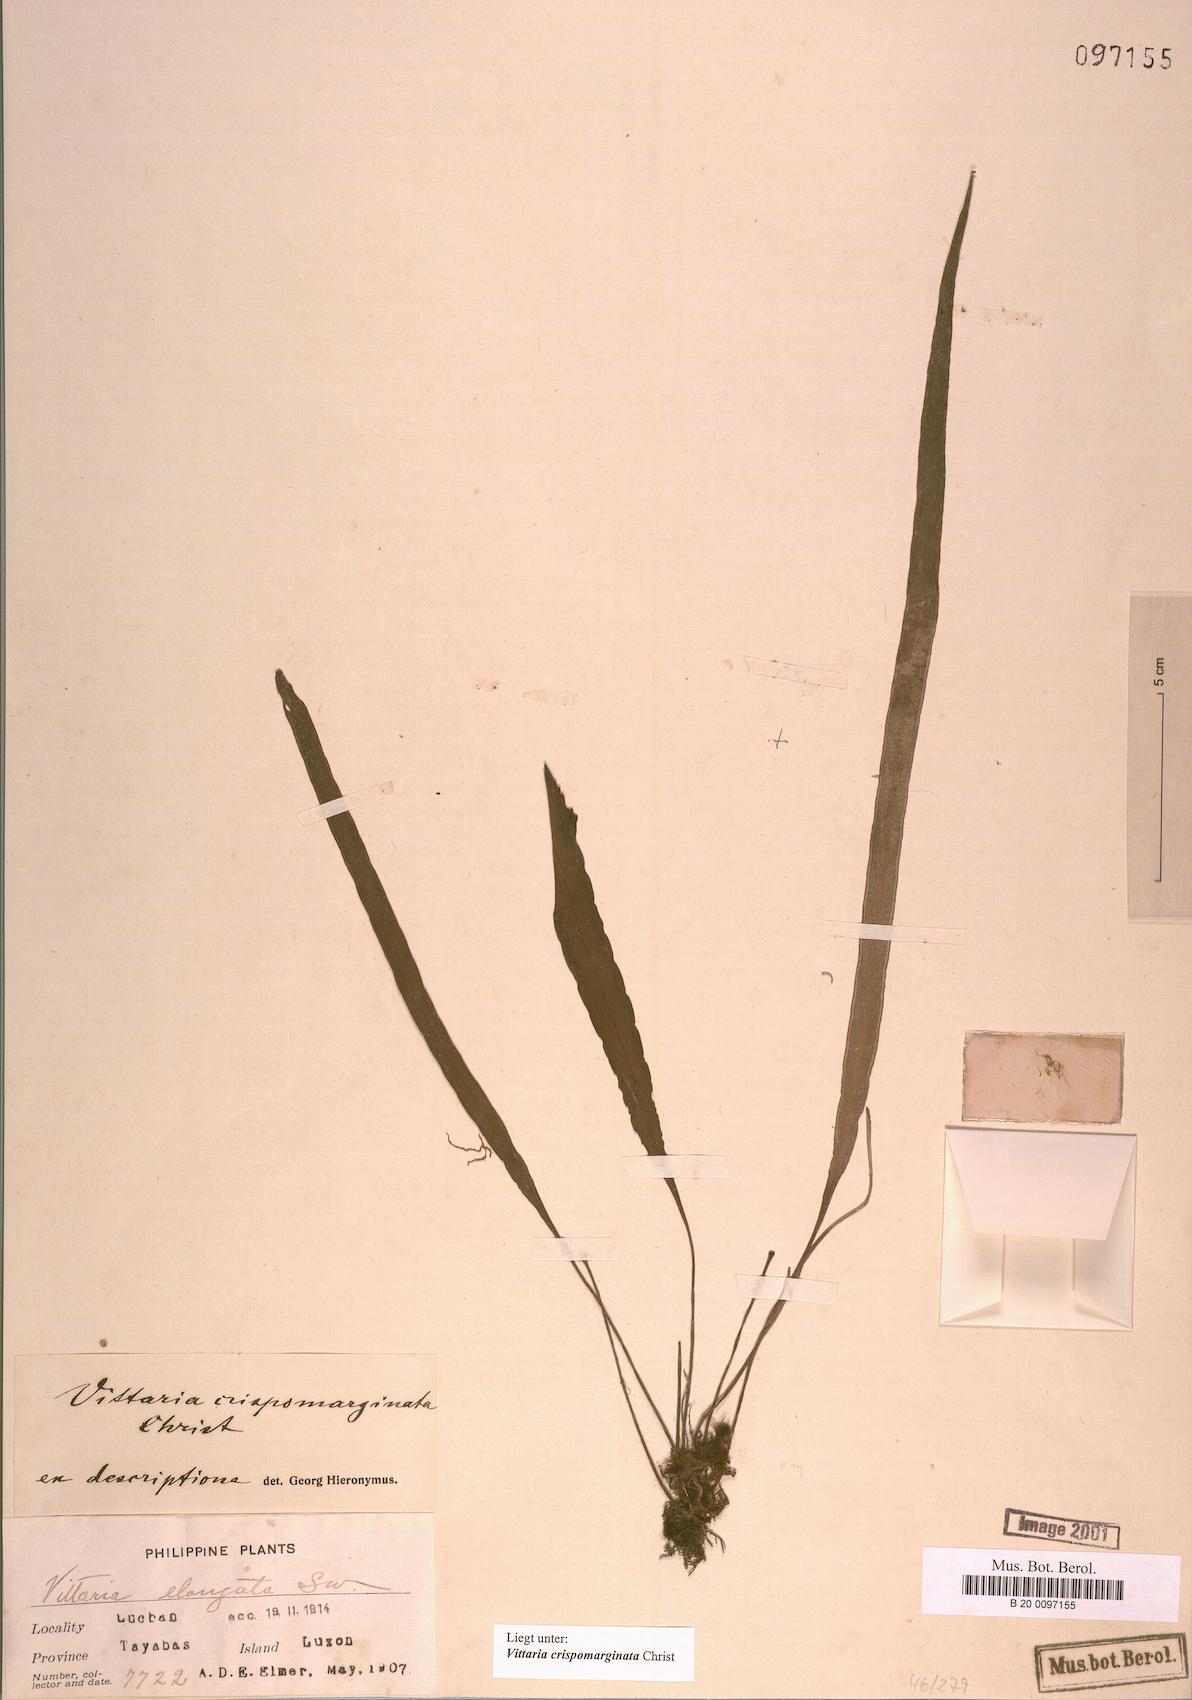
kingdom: Plantae
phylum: Tracheophyta
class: Polypodiopsida
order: Polypodiales
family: Pteridaceae
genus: Haplopteris
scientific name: Haplopteris elongata
